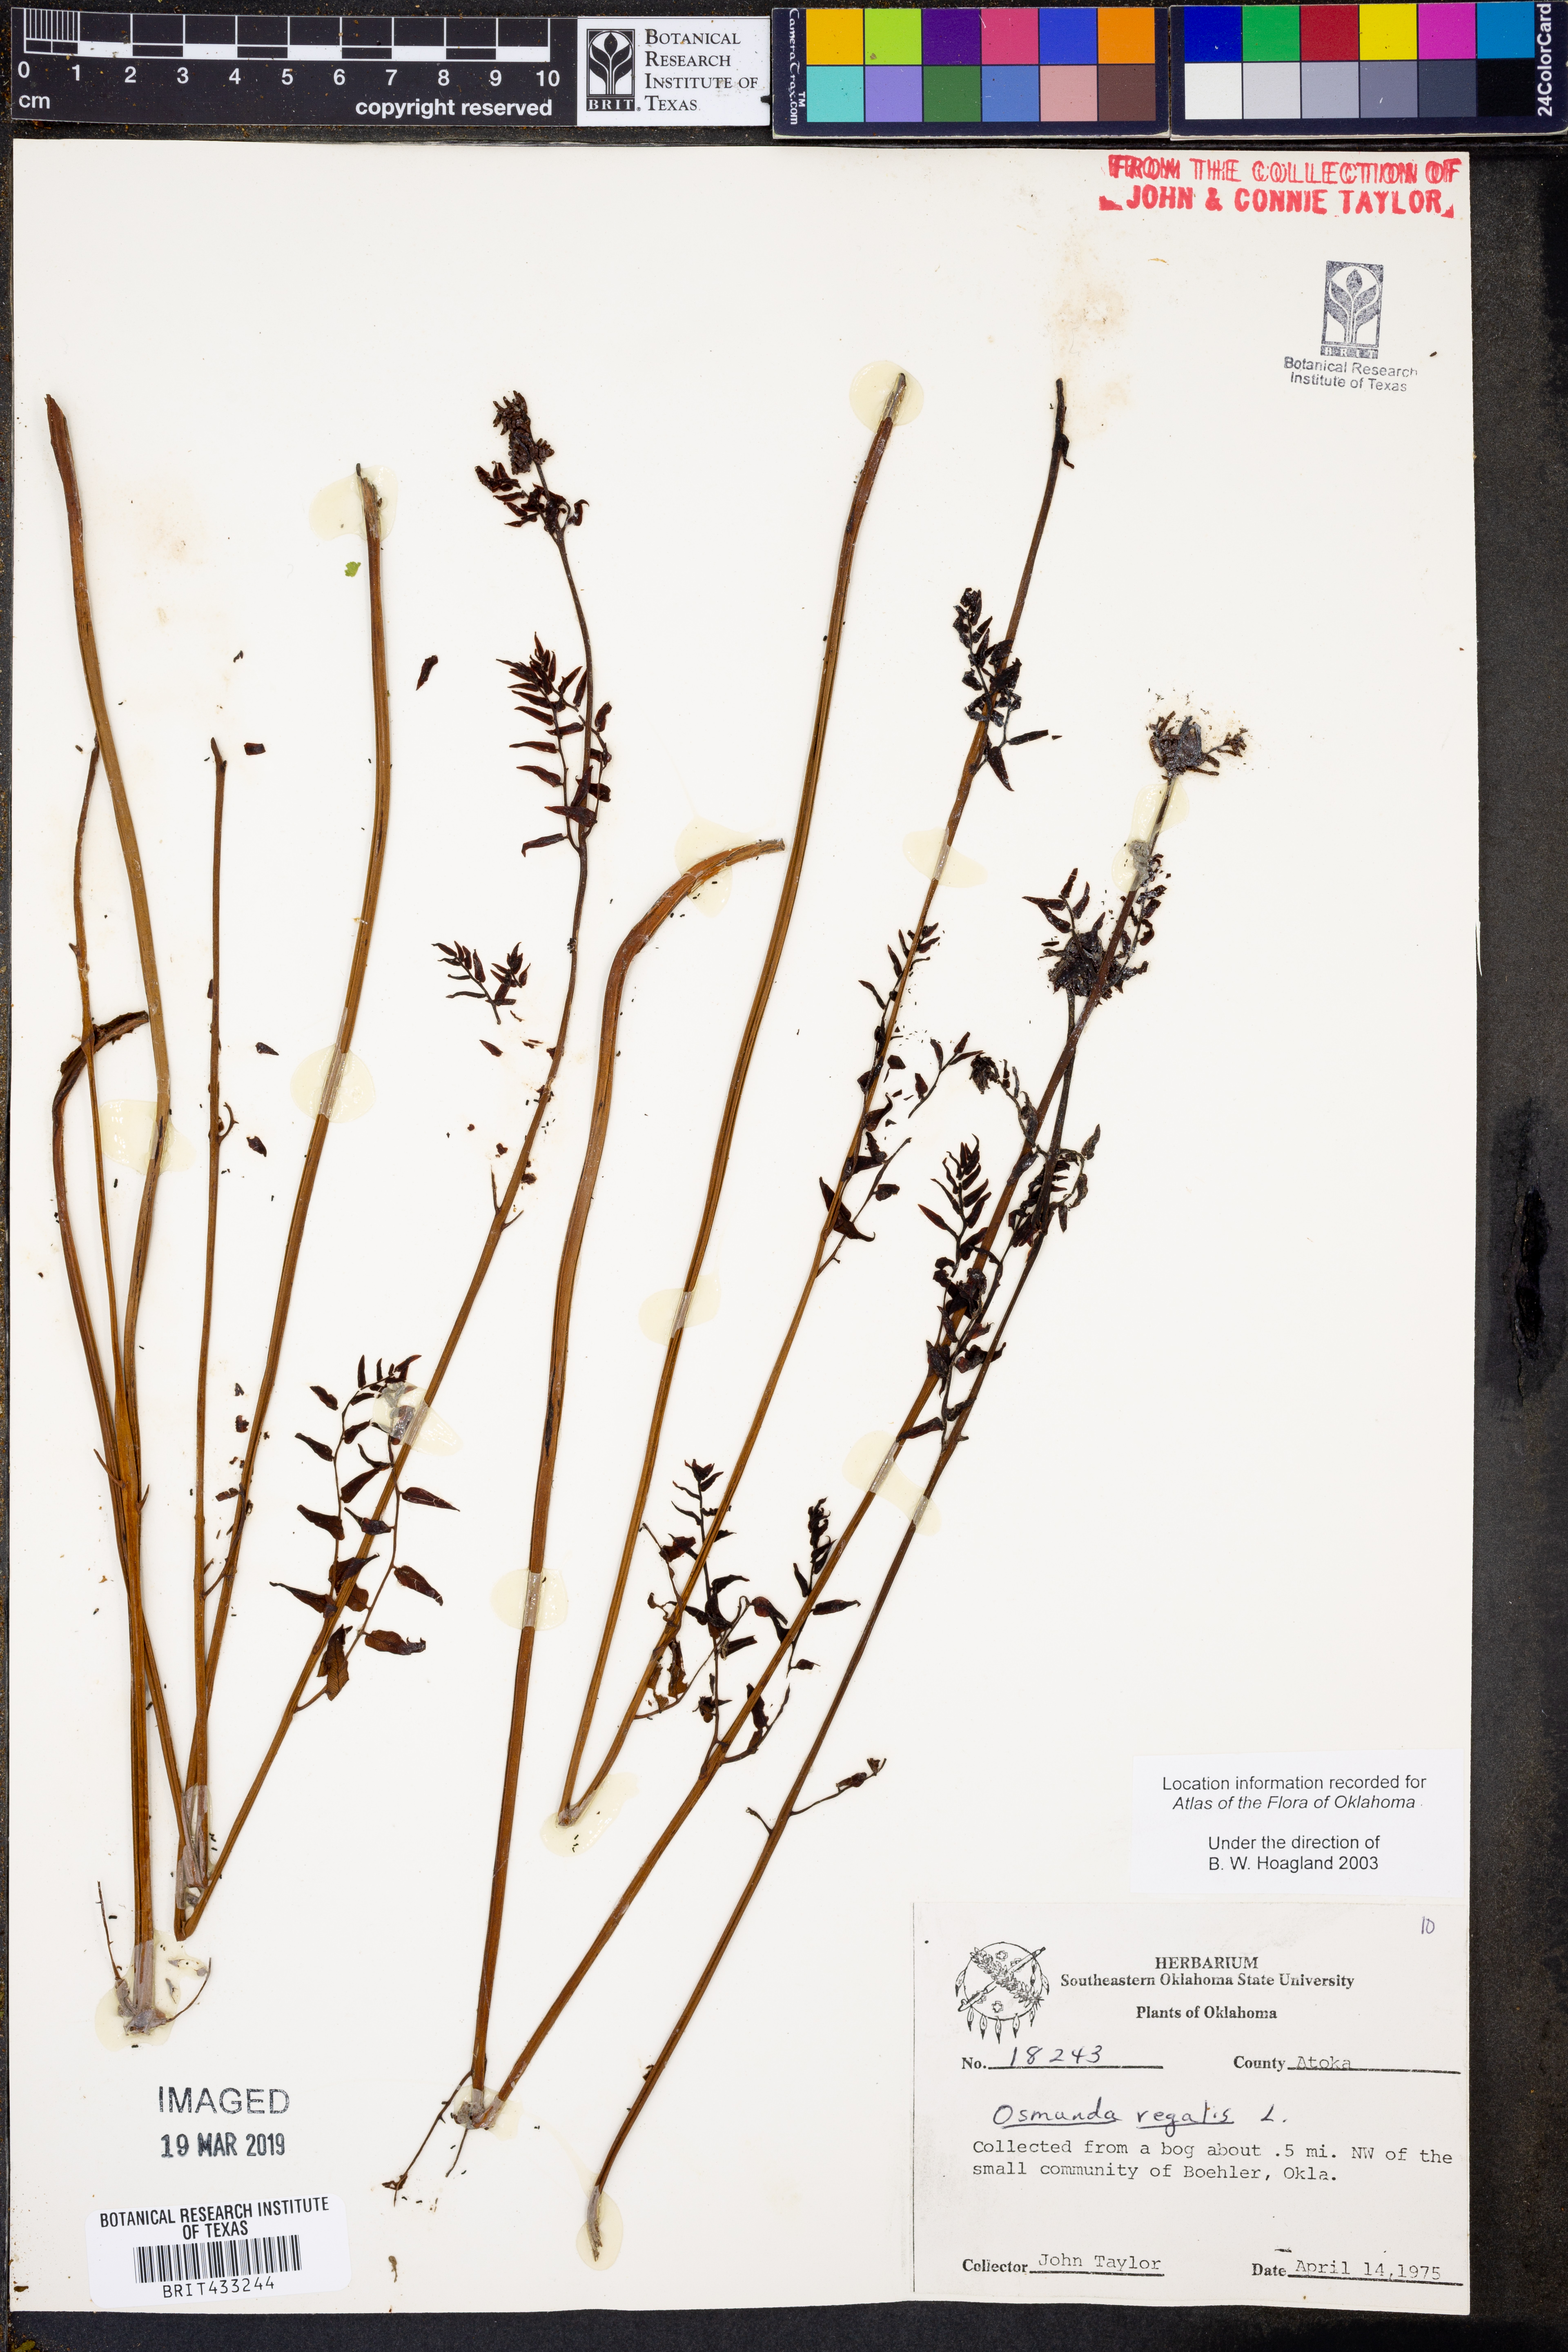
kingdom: Plantae
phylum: Tracheophyta
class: Polypodiopsida
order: Osmundales
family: Osmundaceae
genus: Osmunda
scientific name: Osmunda regalis
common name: Royal fern
